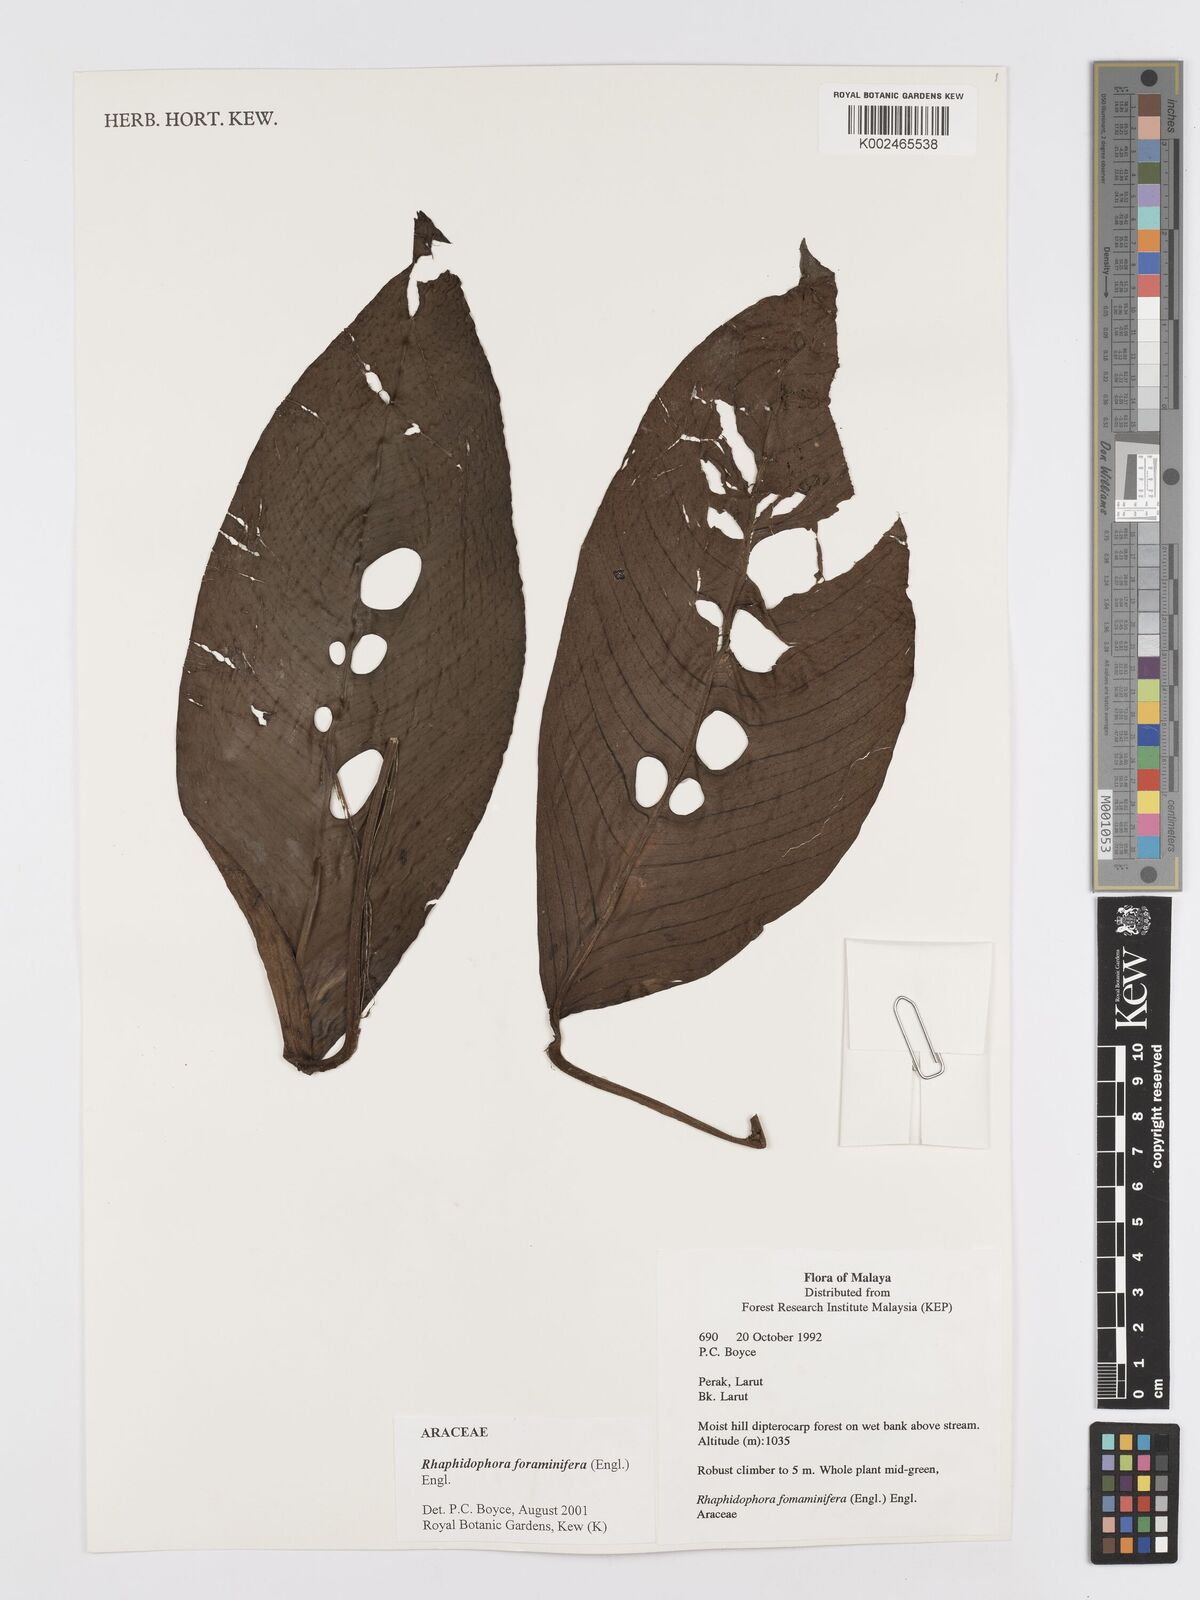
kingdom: Plantae
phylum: Tracheophyta
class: Liliopsida
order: Alismatales
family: Araceae
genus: Rhaphidophora
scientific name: Rhaphidophora foraminifera
